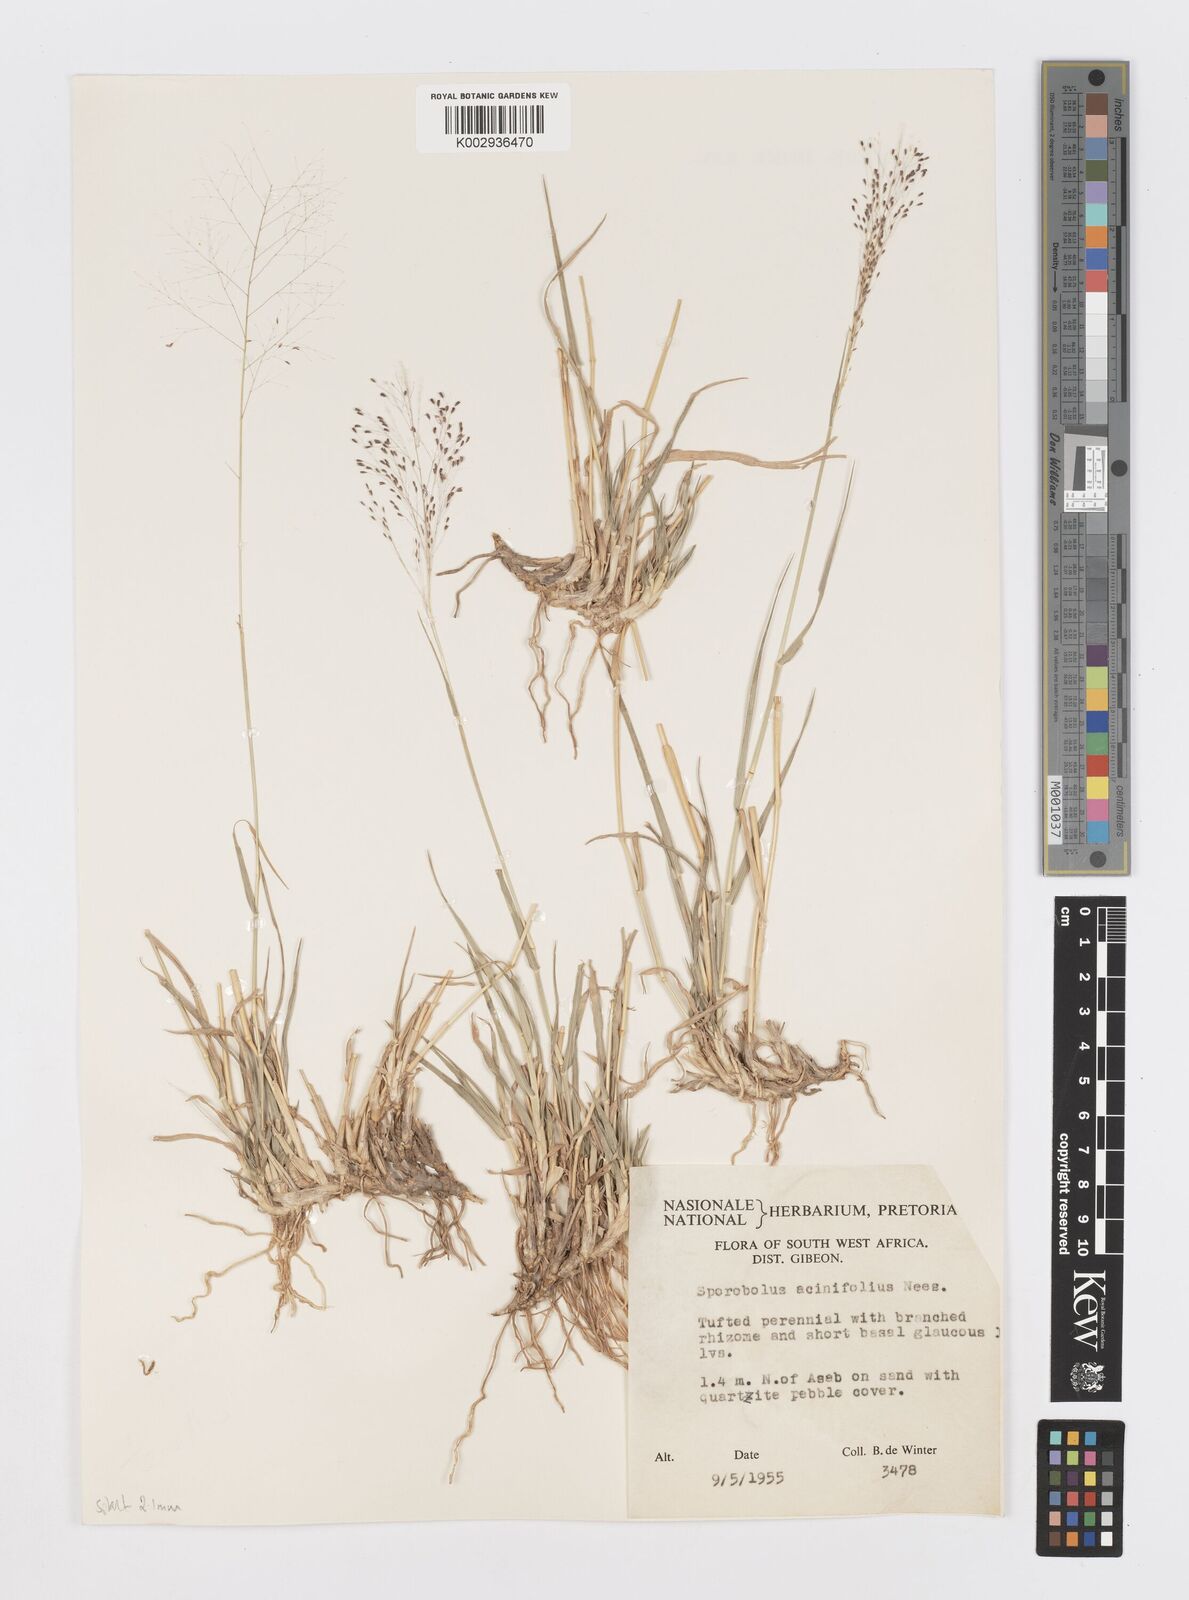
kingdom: Plantae
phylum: Tracheophyta
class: Liliopsida
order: Poales
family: Poaceae
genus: Sporobolus
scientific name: Sporobolus acinifolius
